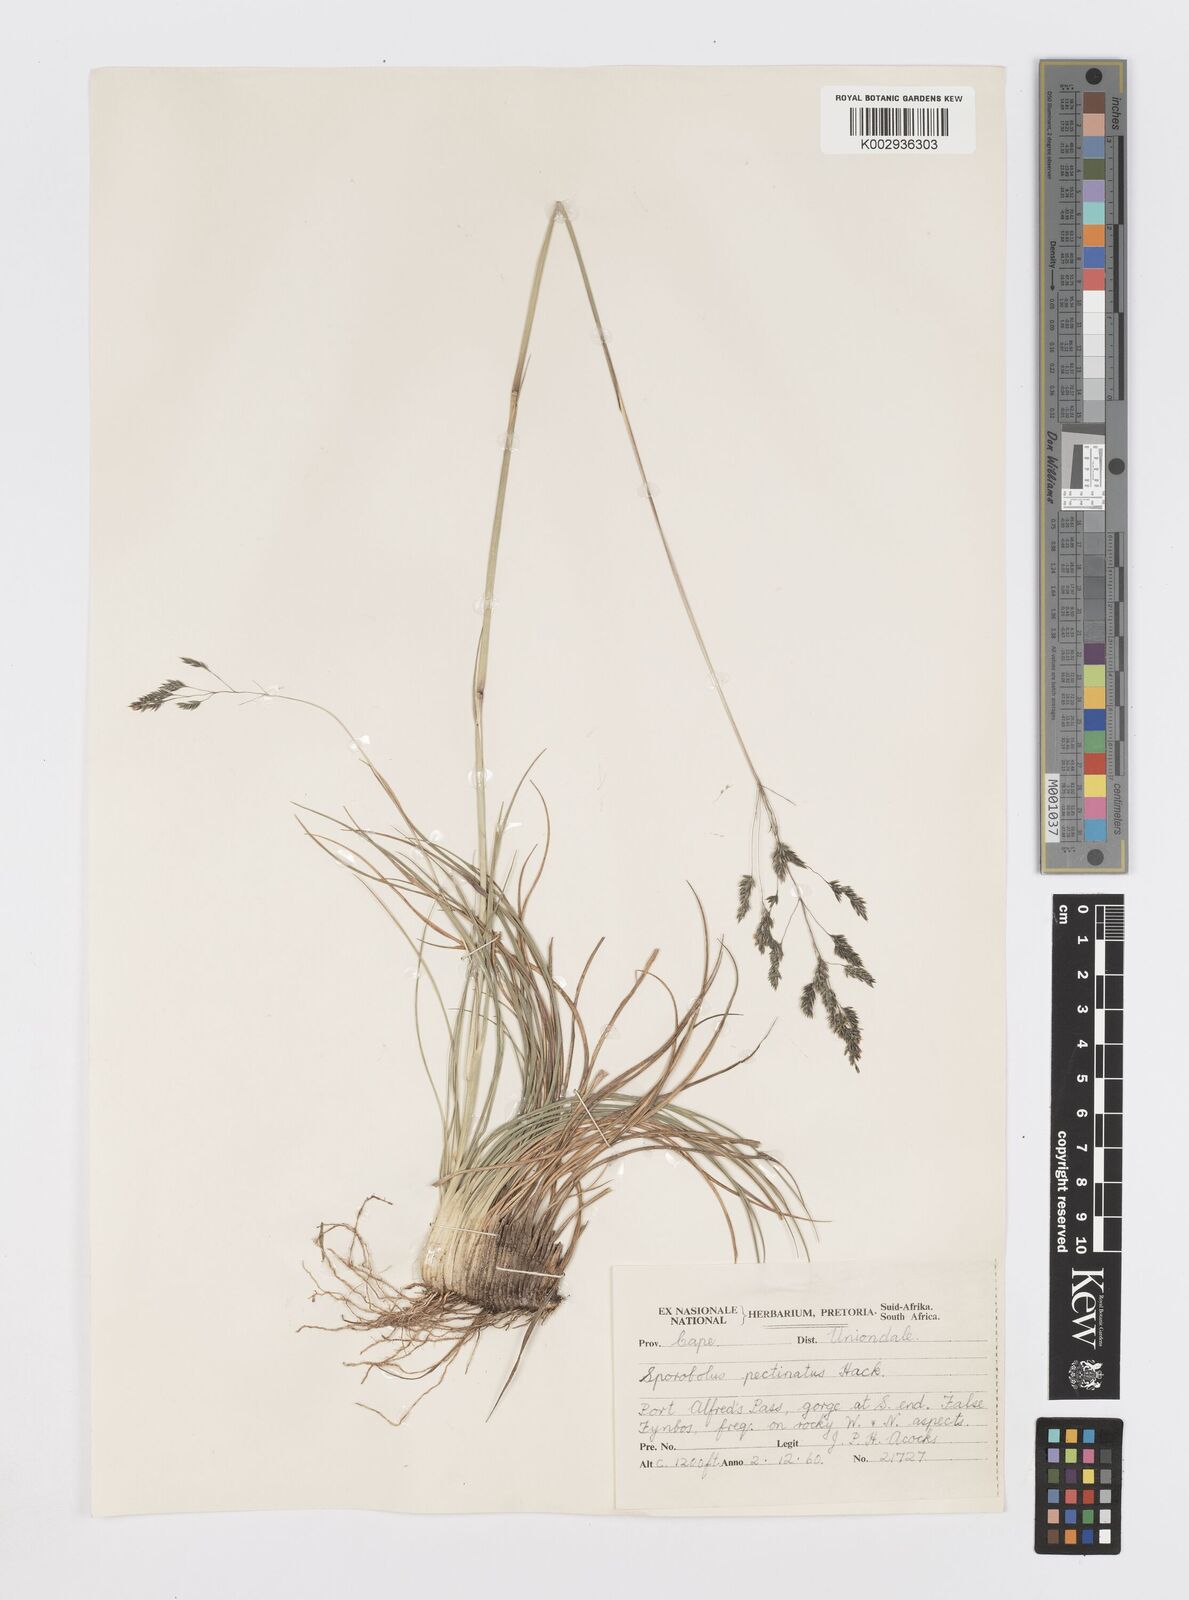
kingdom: Plantae
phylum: Tracheophyta
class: Liliopsida
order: Poales
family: Poaceae
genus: Sporobolus
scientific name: Sporobolus pectinatus
